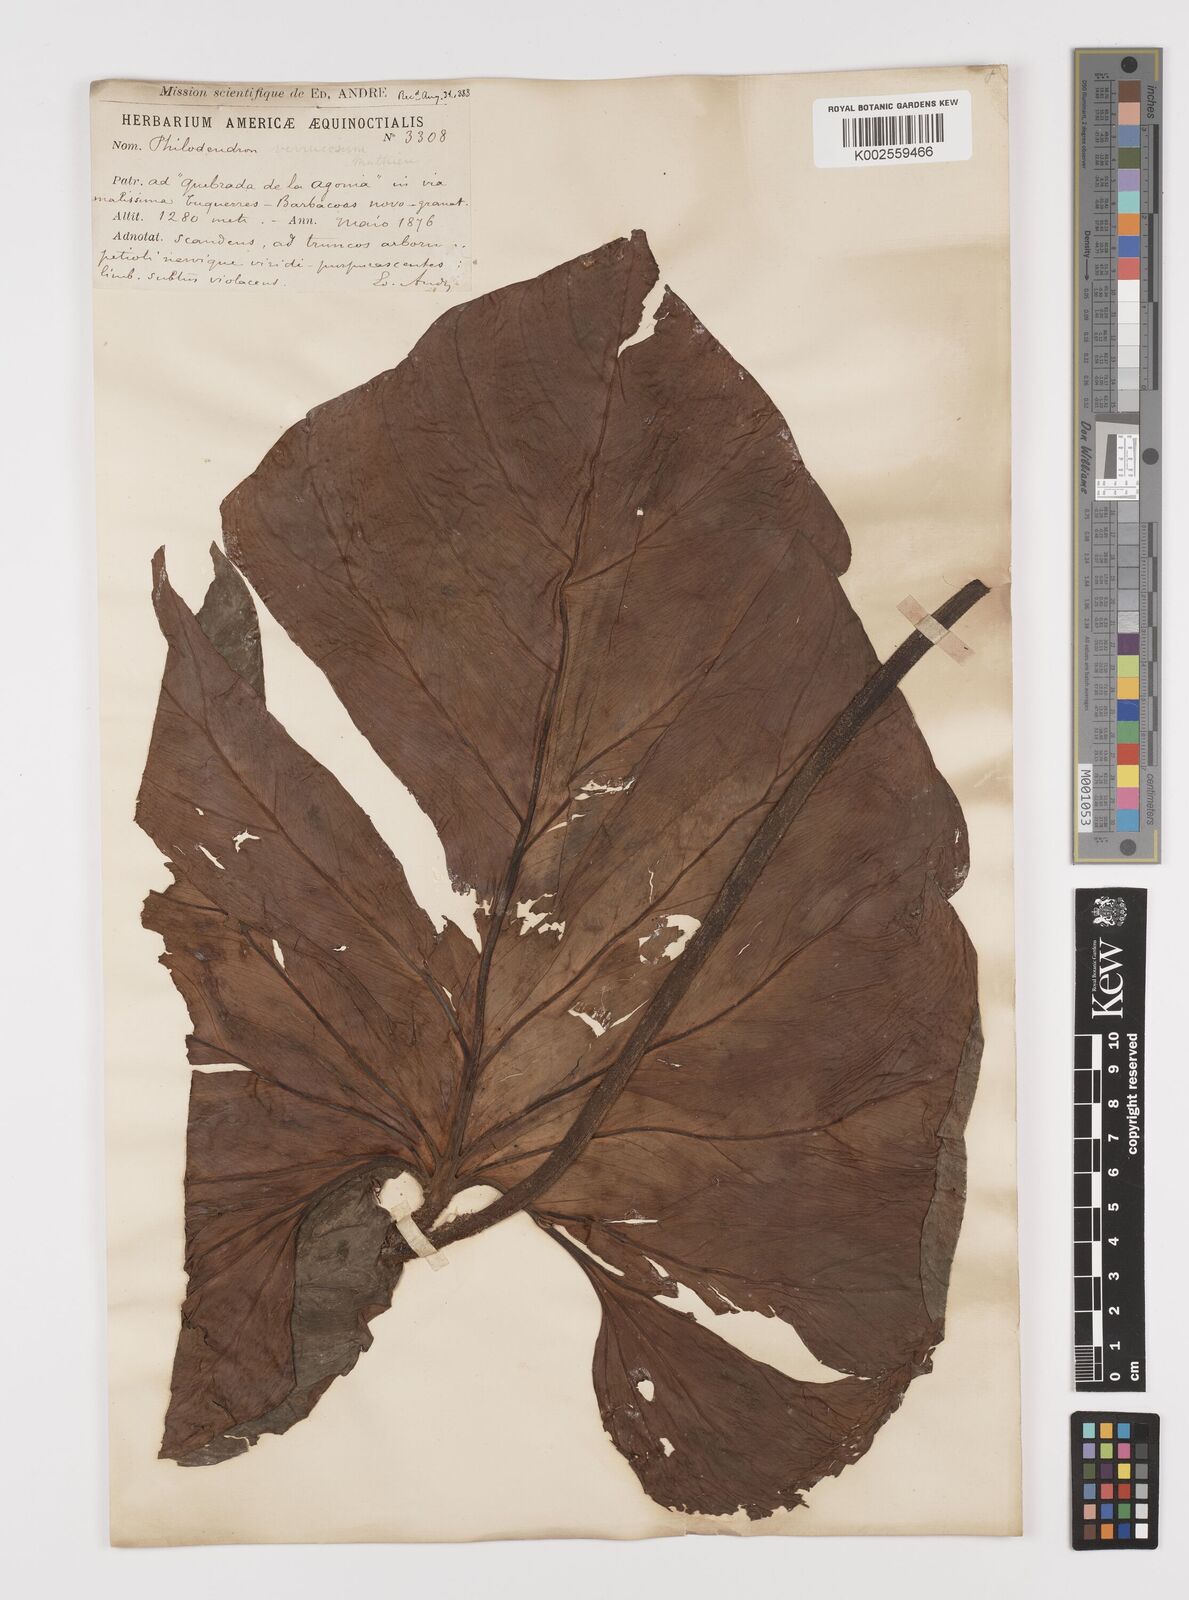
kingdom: Plantae
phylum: Tracheophyta
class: Liliopsida
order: Alismatales
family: Araceae
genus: Philodendron
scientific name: Philodendron verrucosum
